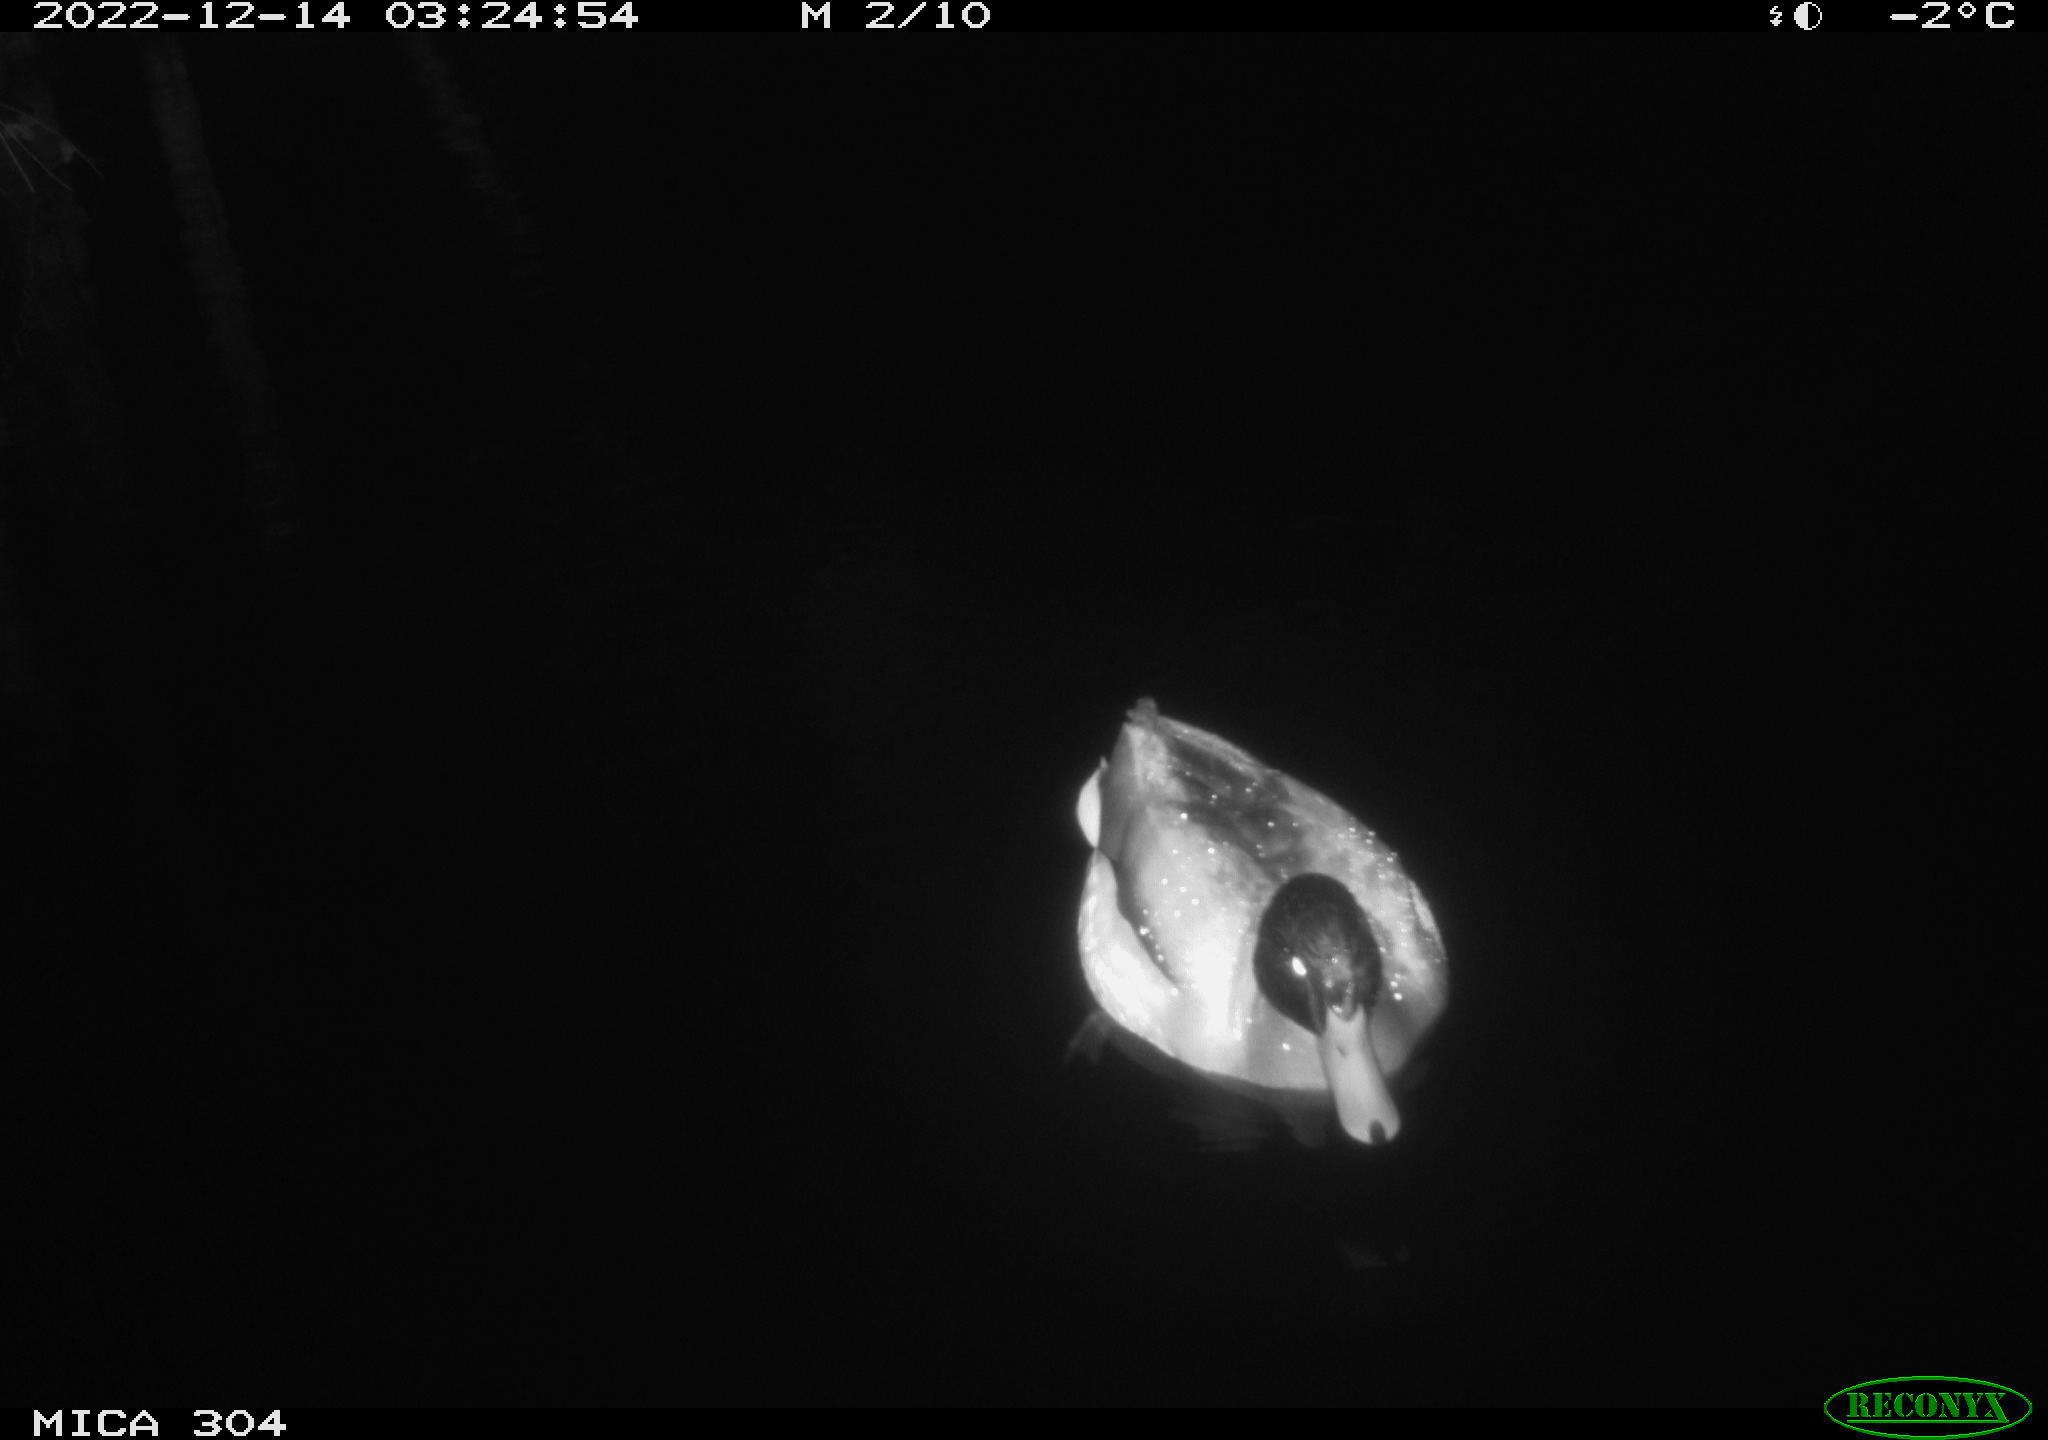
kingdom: Animalia
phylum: Chordata
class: Aves
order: Anseriformes
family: Anatidae
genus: Anas
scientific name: Anas
